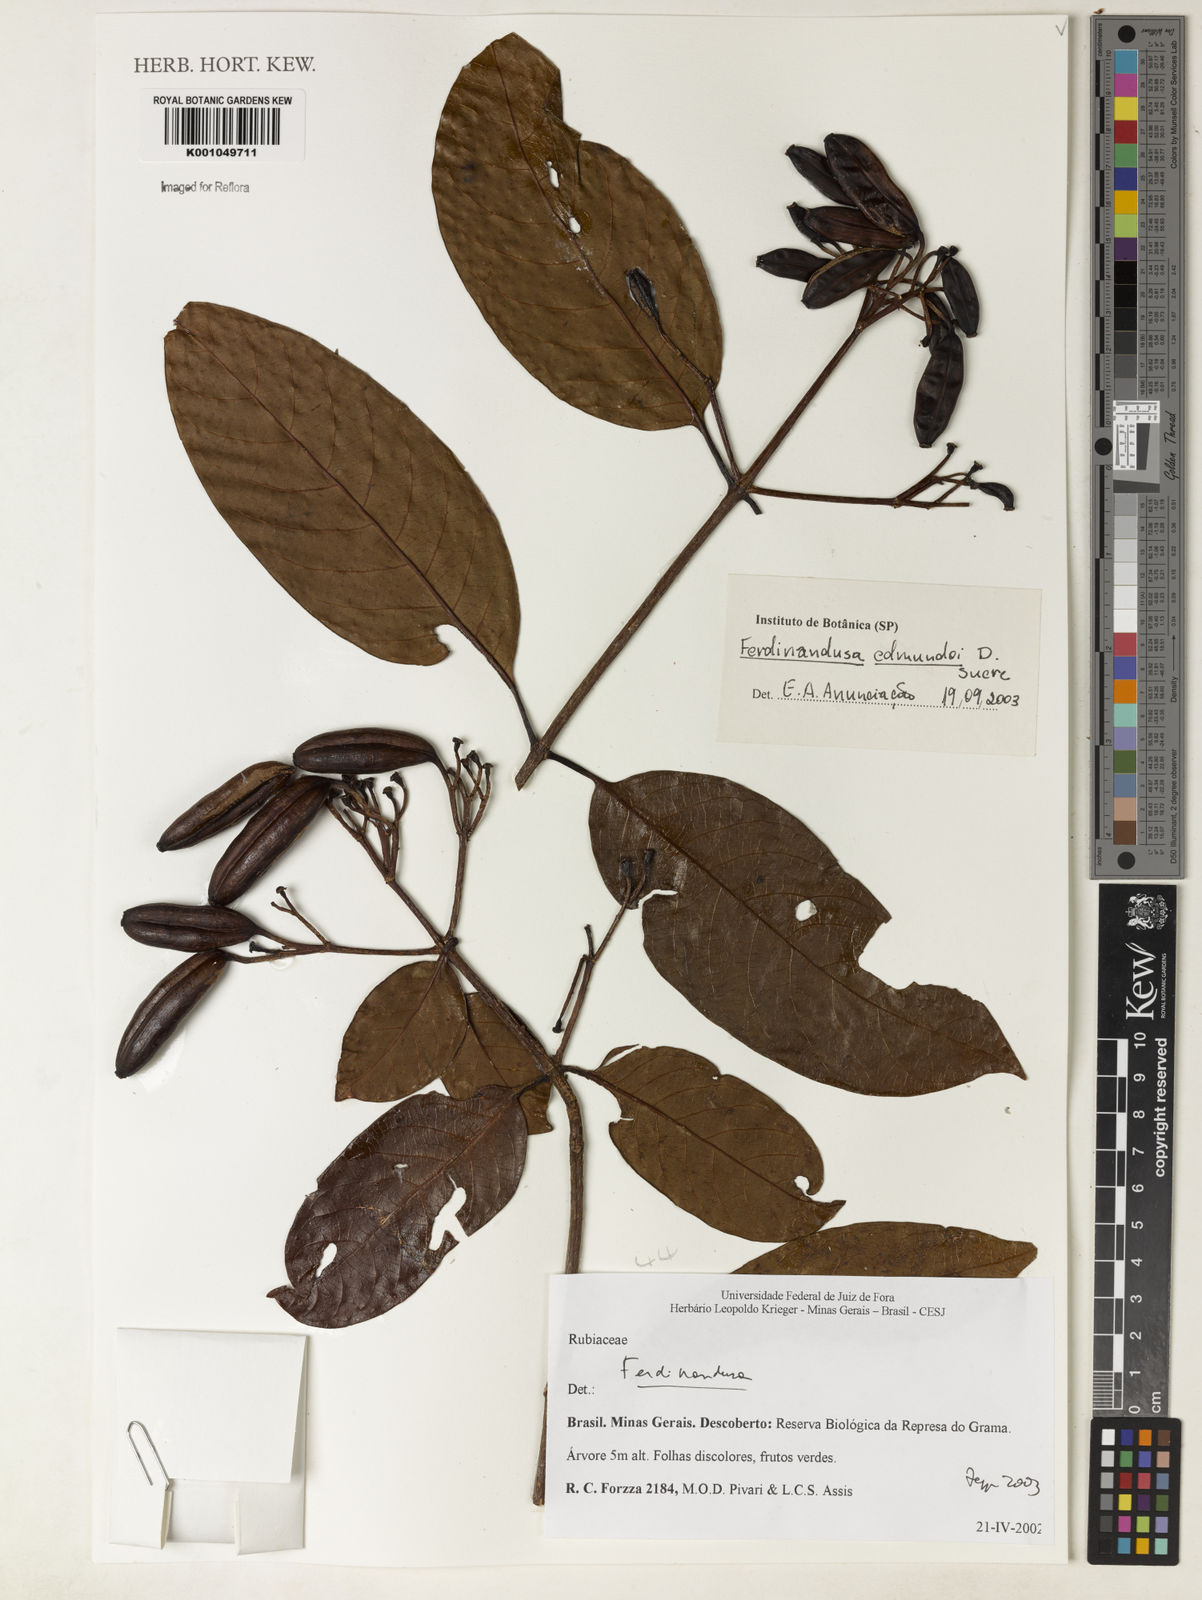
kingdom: Plantae
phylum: Tracheophyta
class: Magnoliopsida
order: Gentianales
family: Rubiaceae
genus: Ferdinandusa
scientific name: Ferdinandusa edmundoi
